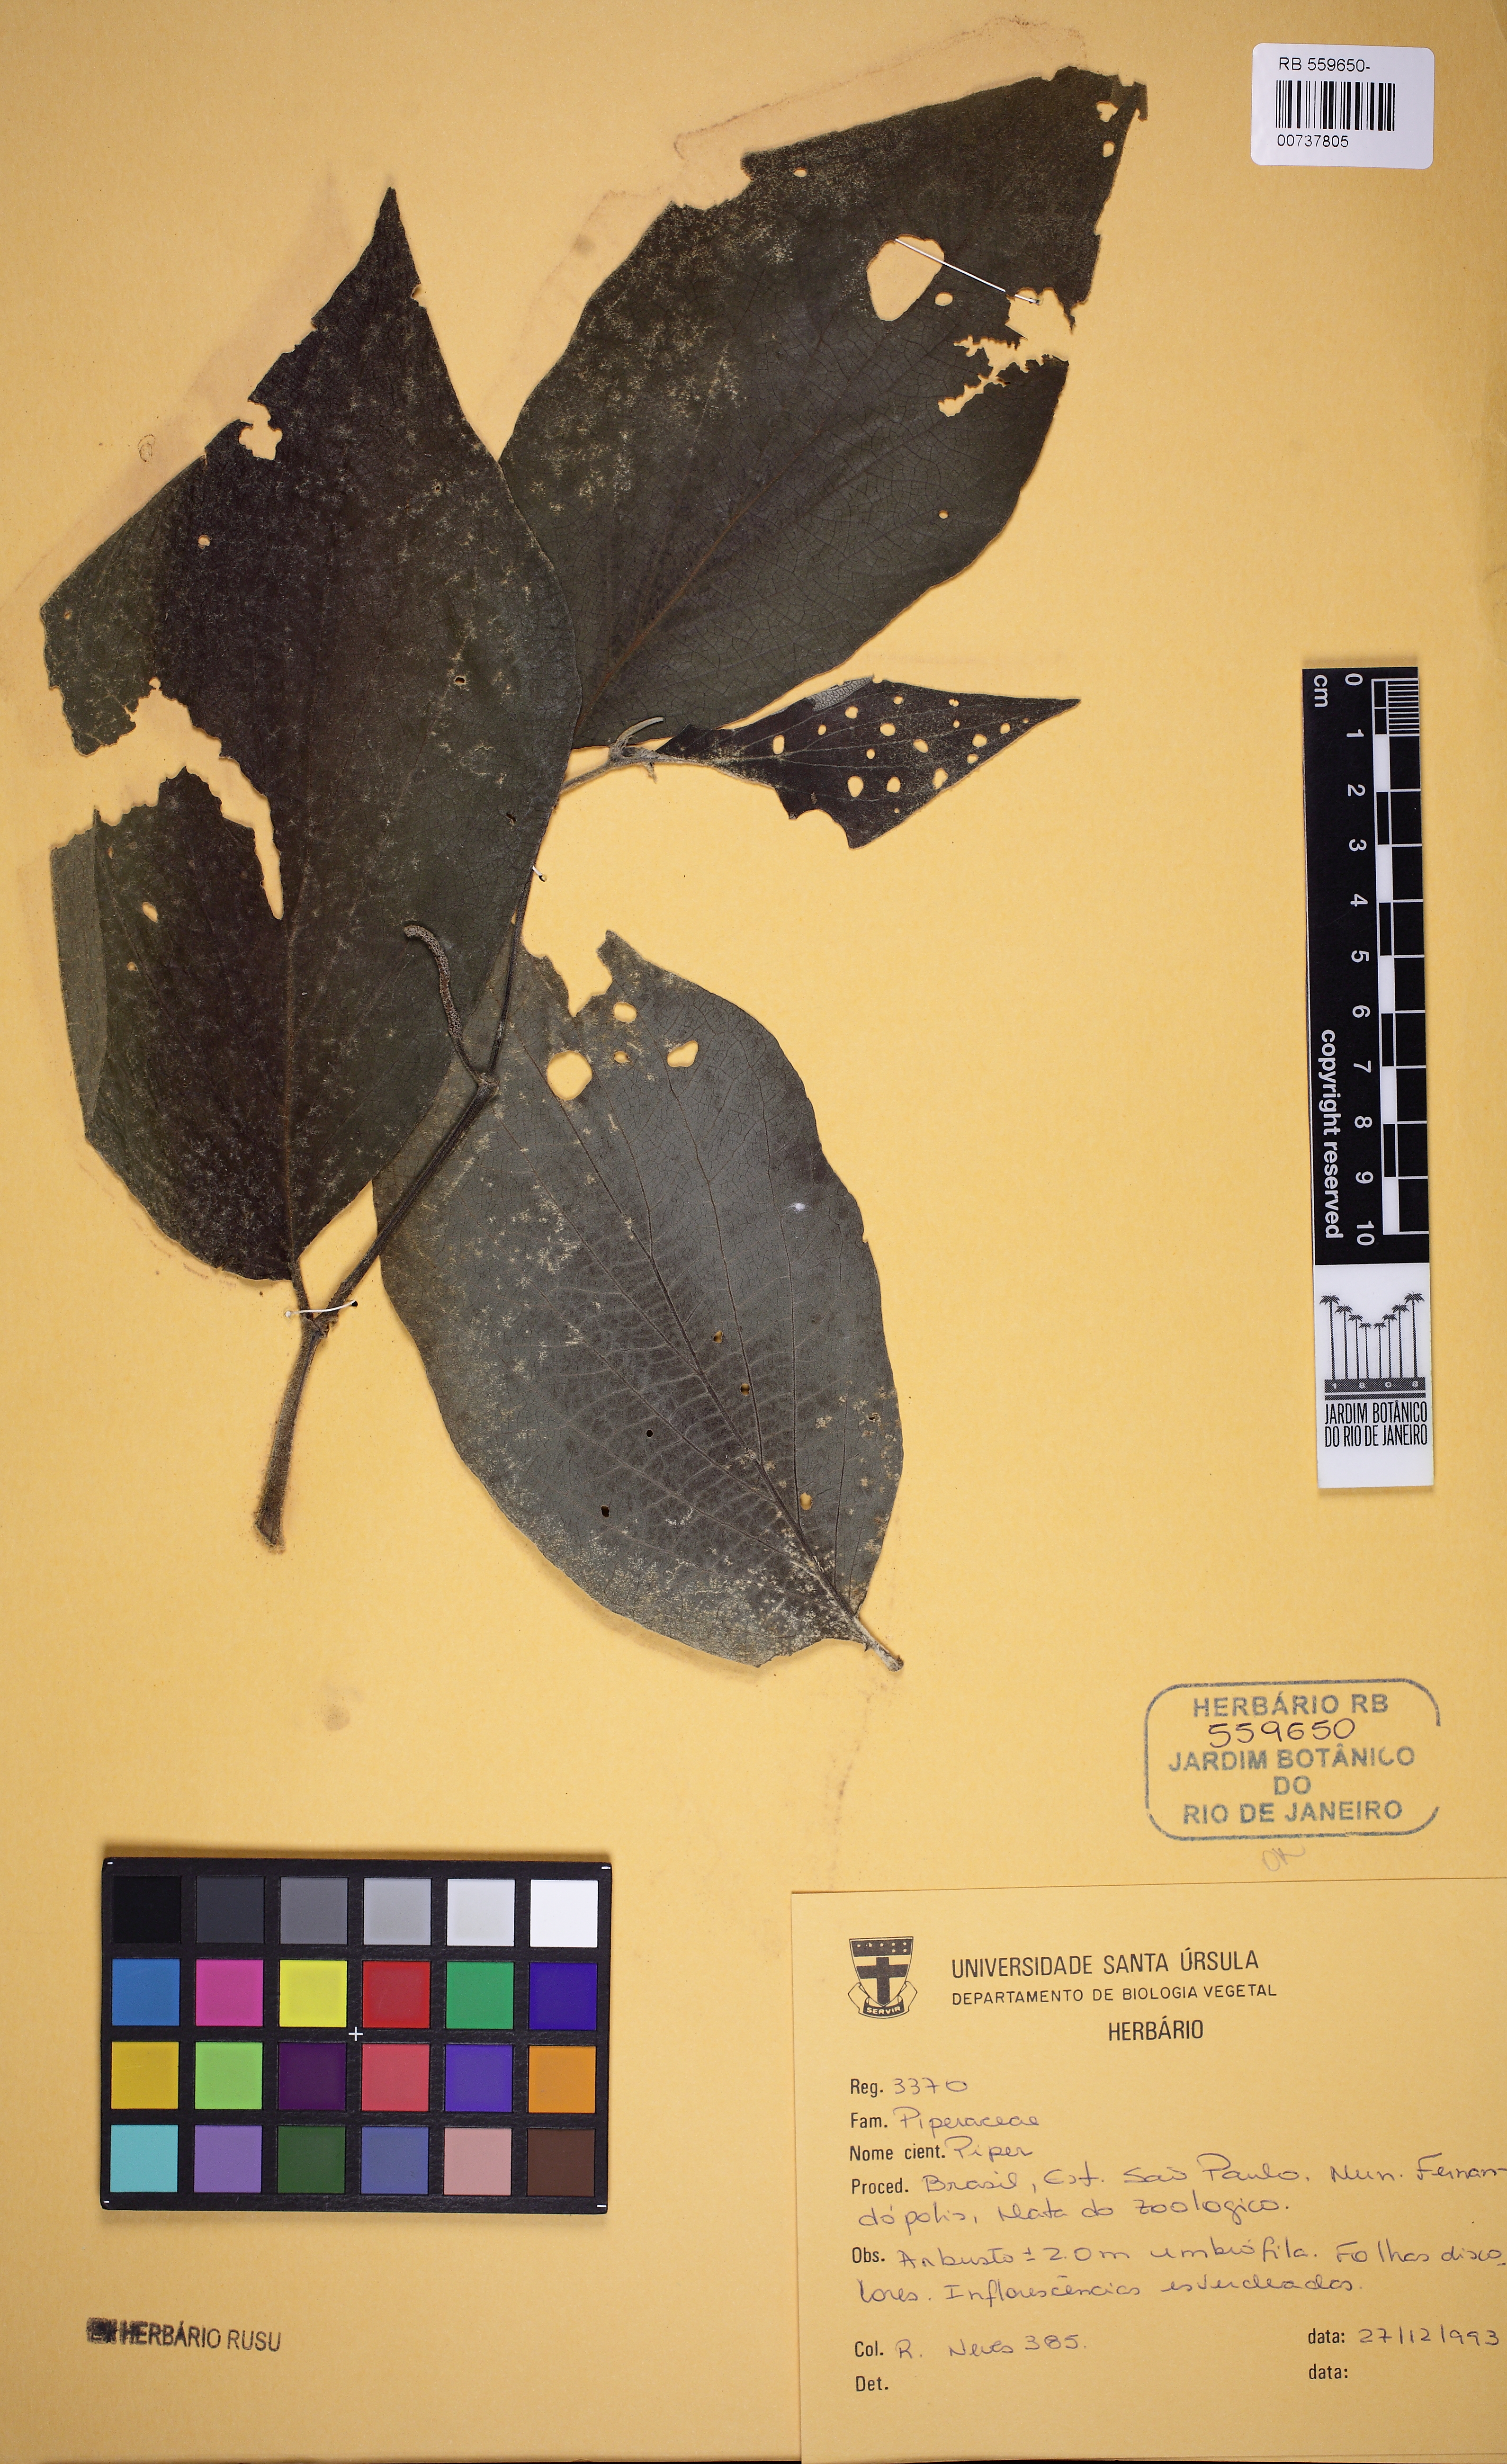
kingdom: Plantae
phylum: Tracheophyta
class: Magnoliopsida
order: Piperales
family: Piperaceae
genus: Piper
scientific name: Piper
